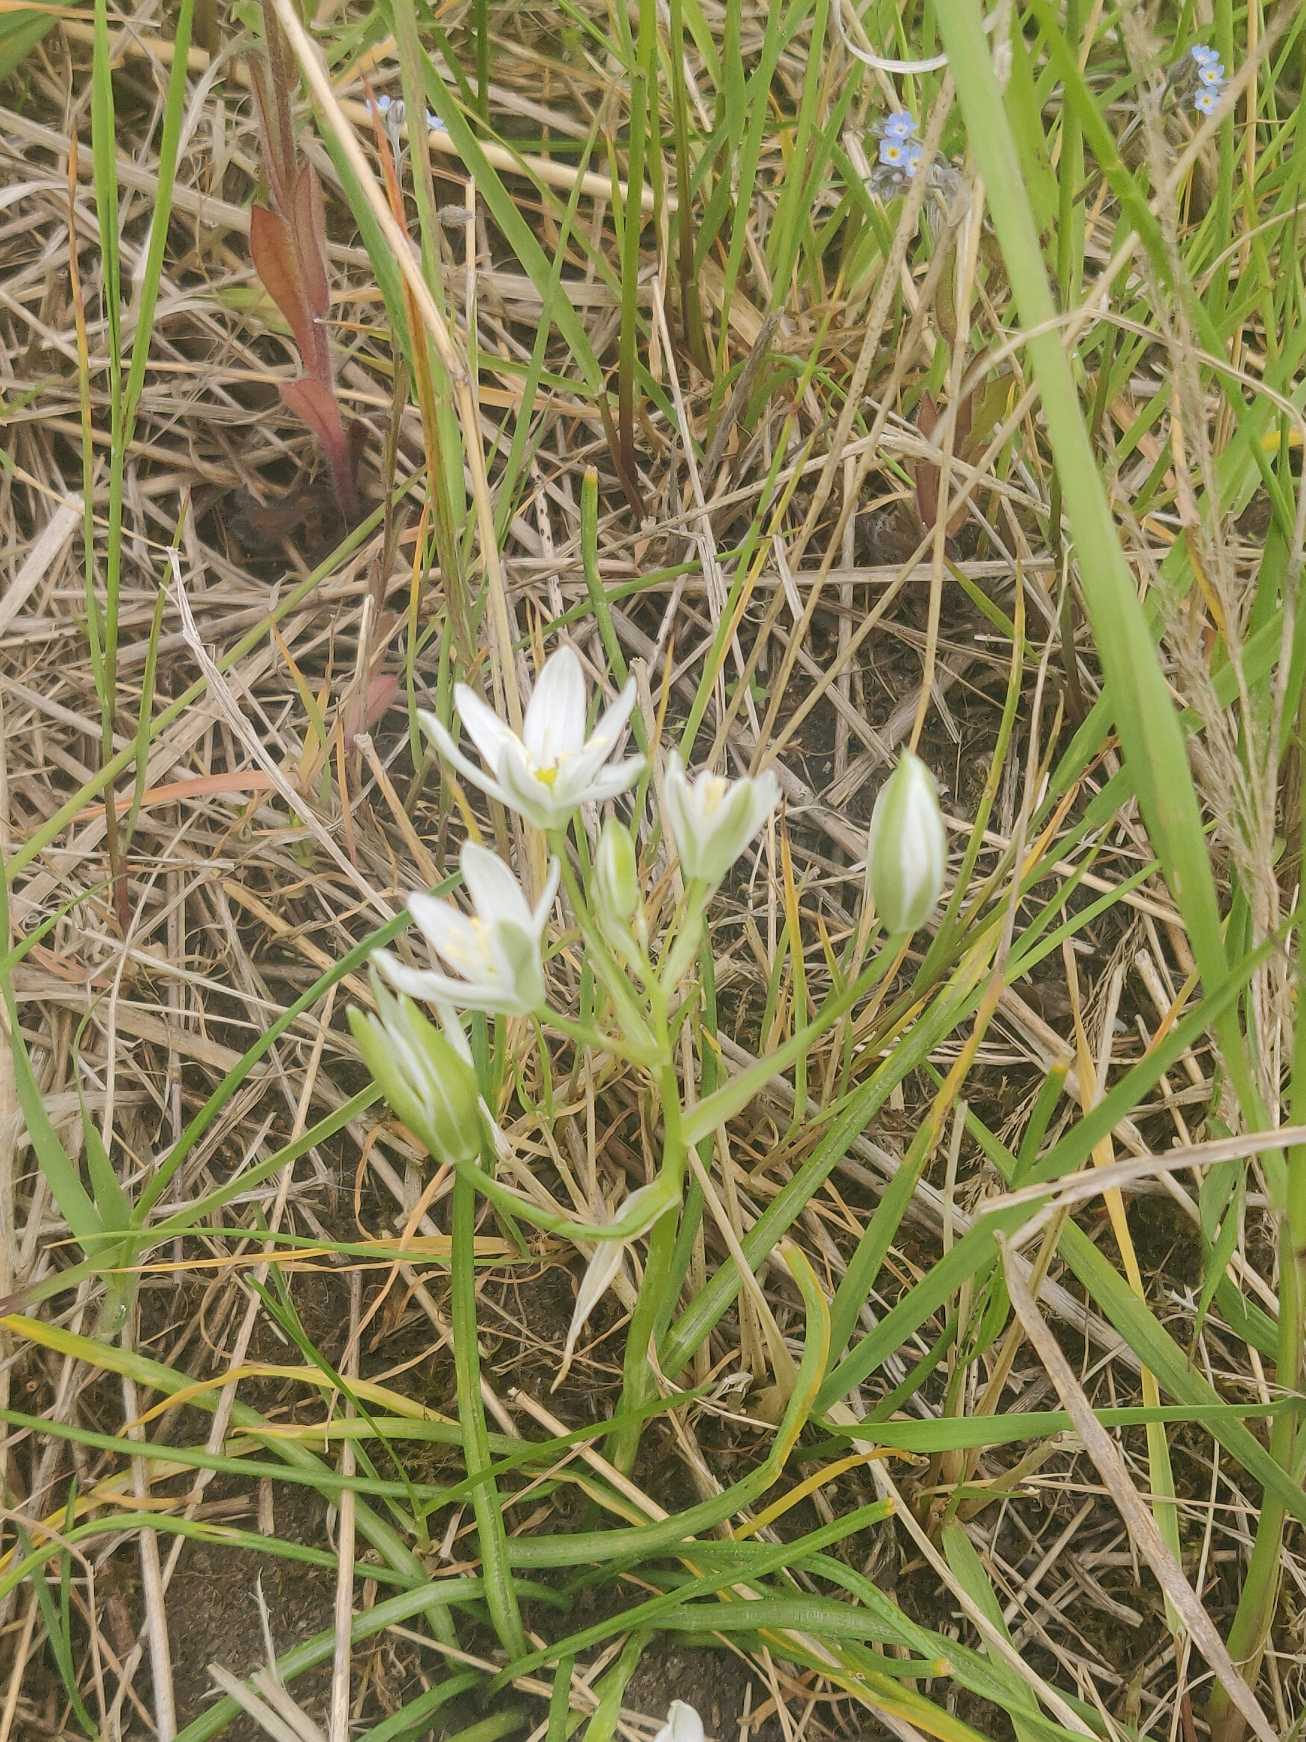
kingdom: Plantae
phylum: Tracheophyta
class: Liliopsida
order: Asparagales
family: Asparagaceae
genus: Ornithogalum
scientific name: Ornithogalum umbellatum
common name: Kost-fuglemælk
